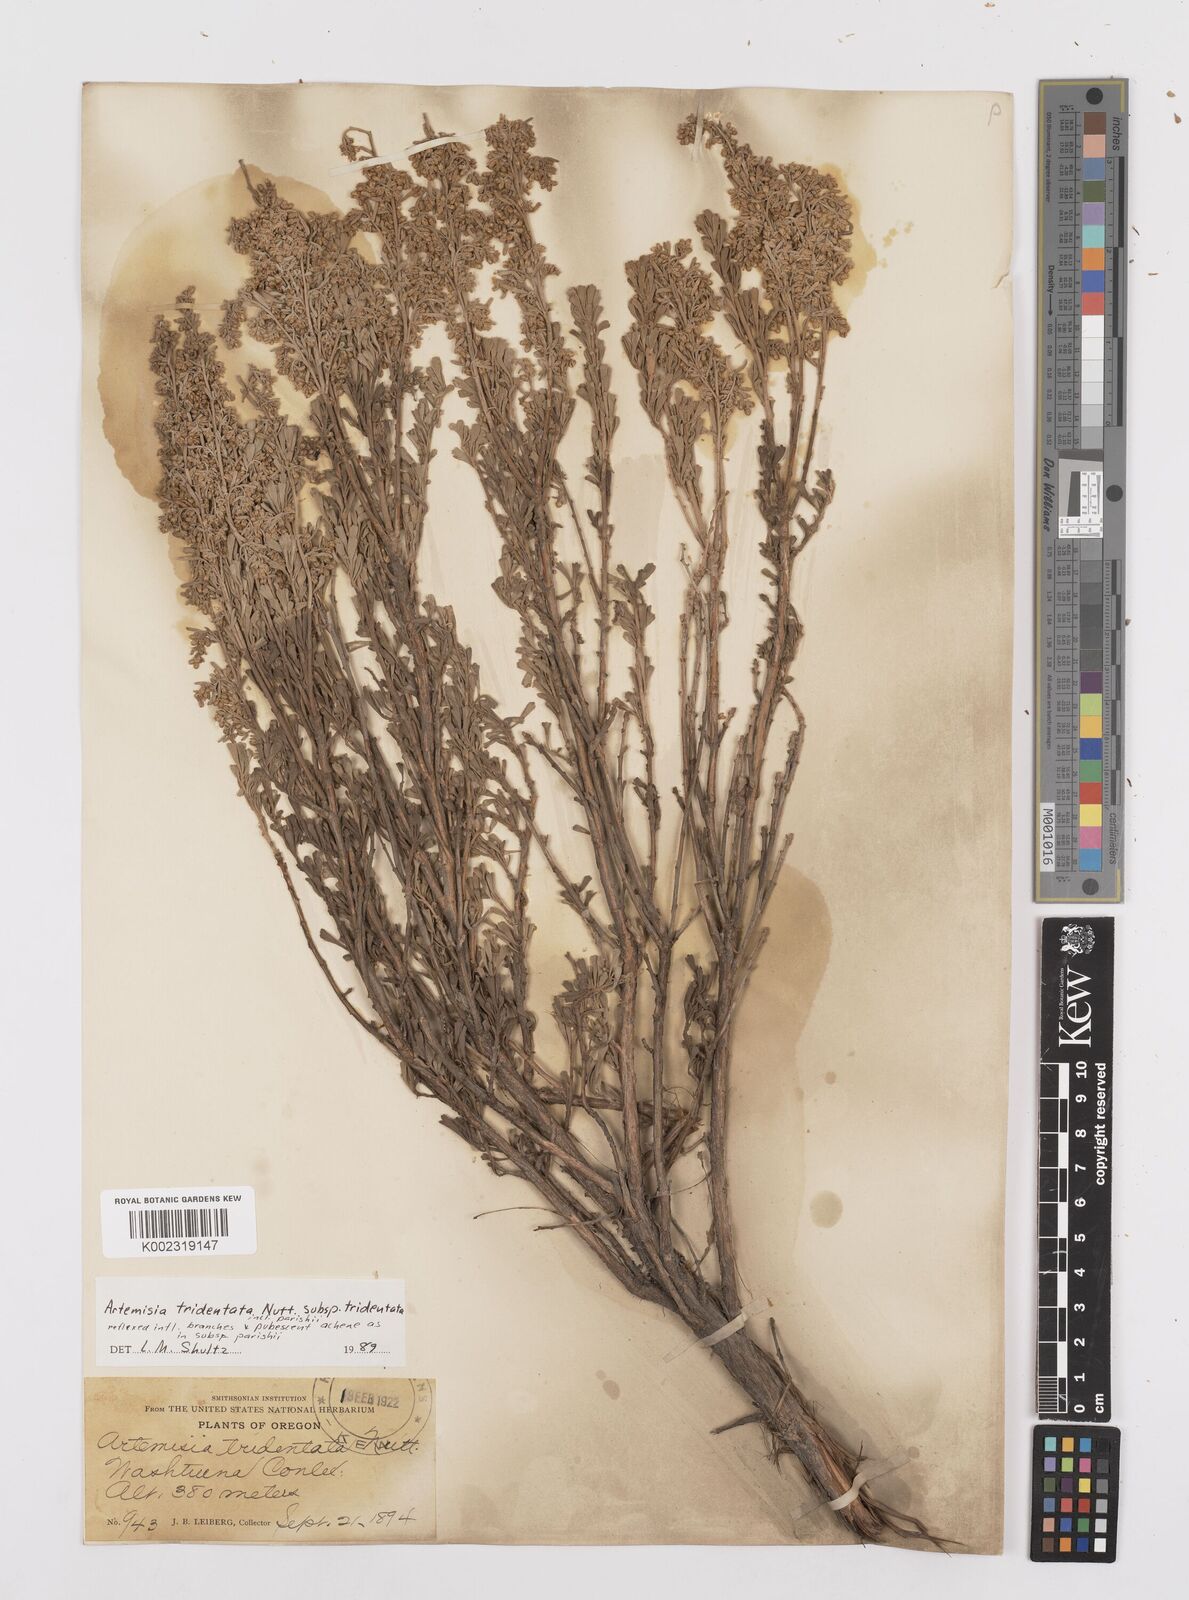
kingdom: Plantae
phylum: Tracheophyta
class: Magnoliopsida
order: Asterales
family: Asteraceae
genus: Artemisia
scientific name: Artemisia tridentata
